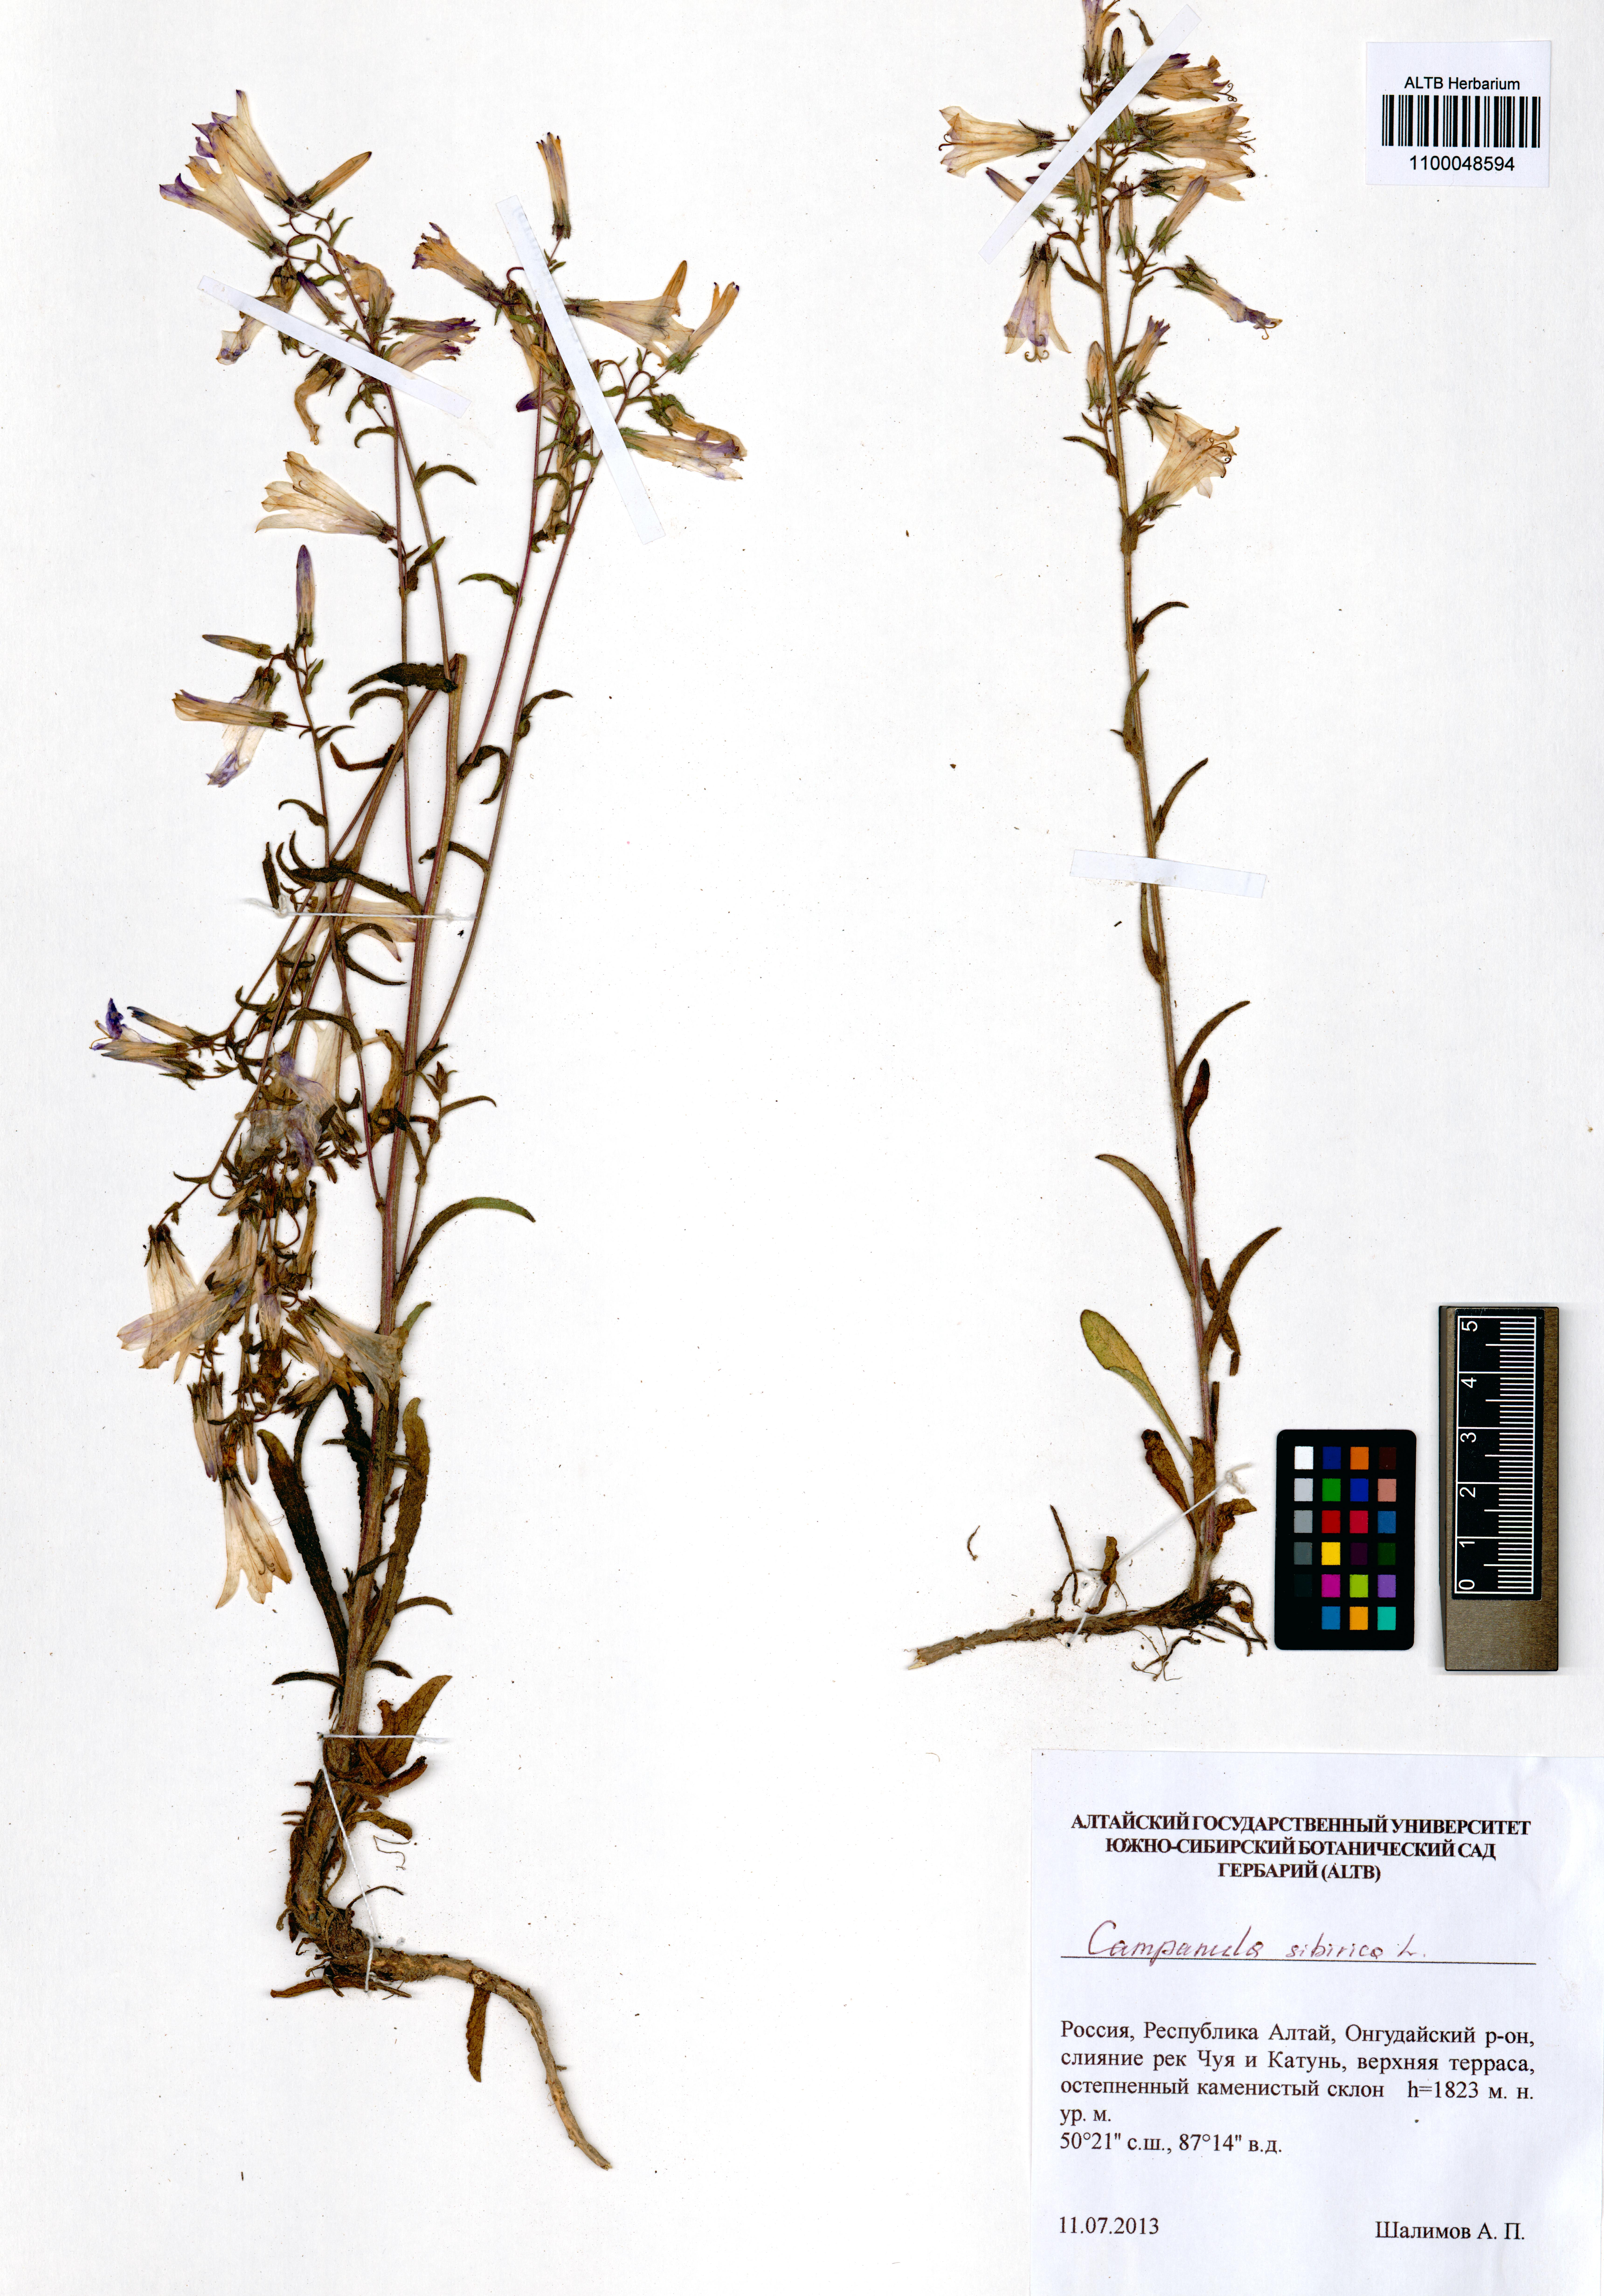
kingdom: Plantae
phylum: Tracheophyta
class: Magnoliopsida
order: Asterales
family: Campanulaceae
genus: Campanula
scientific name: Campanula sibirica
